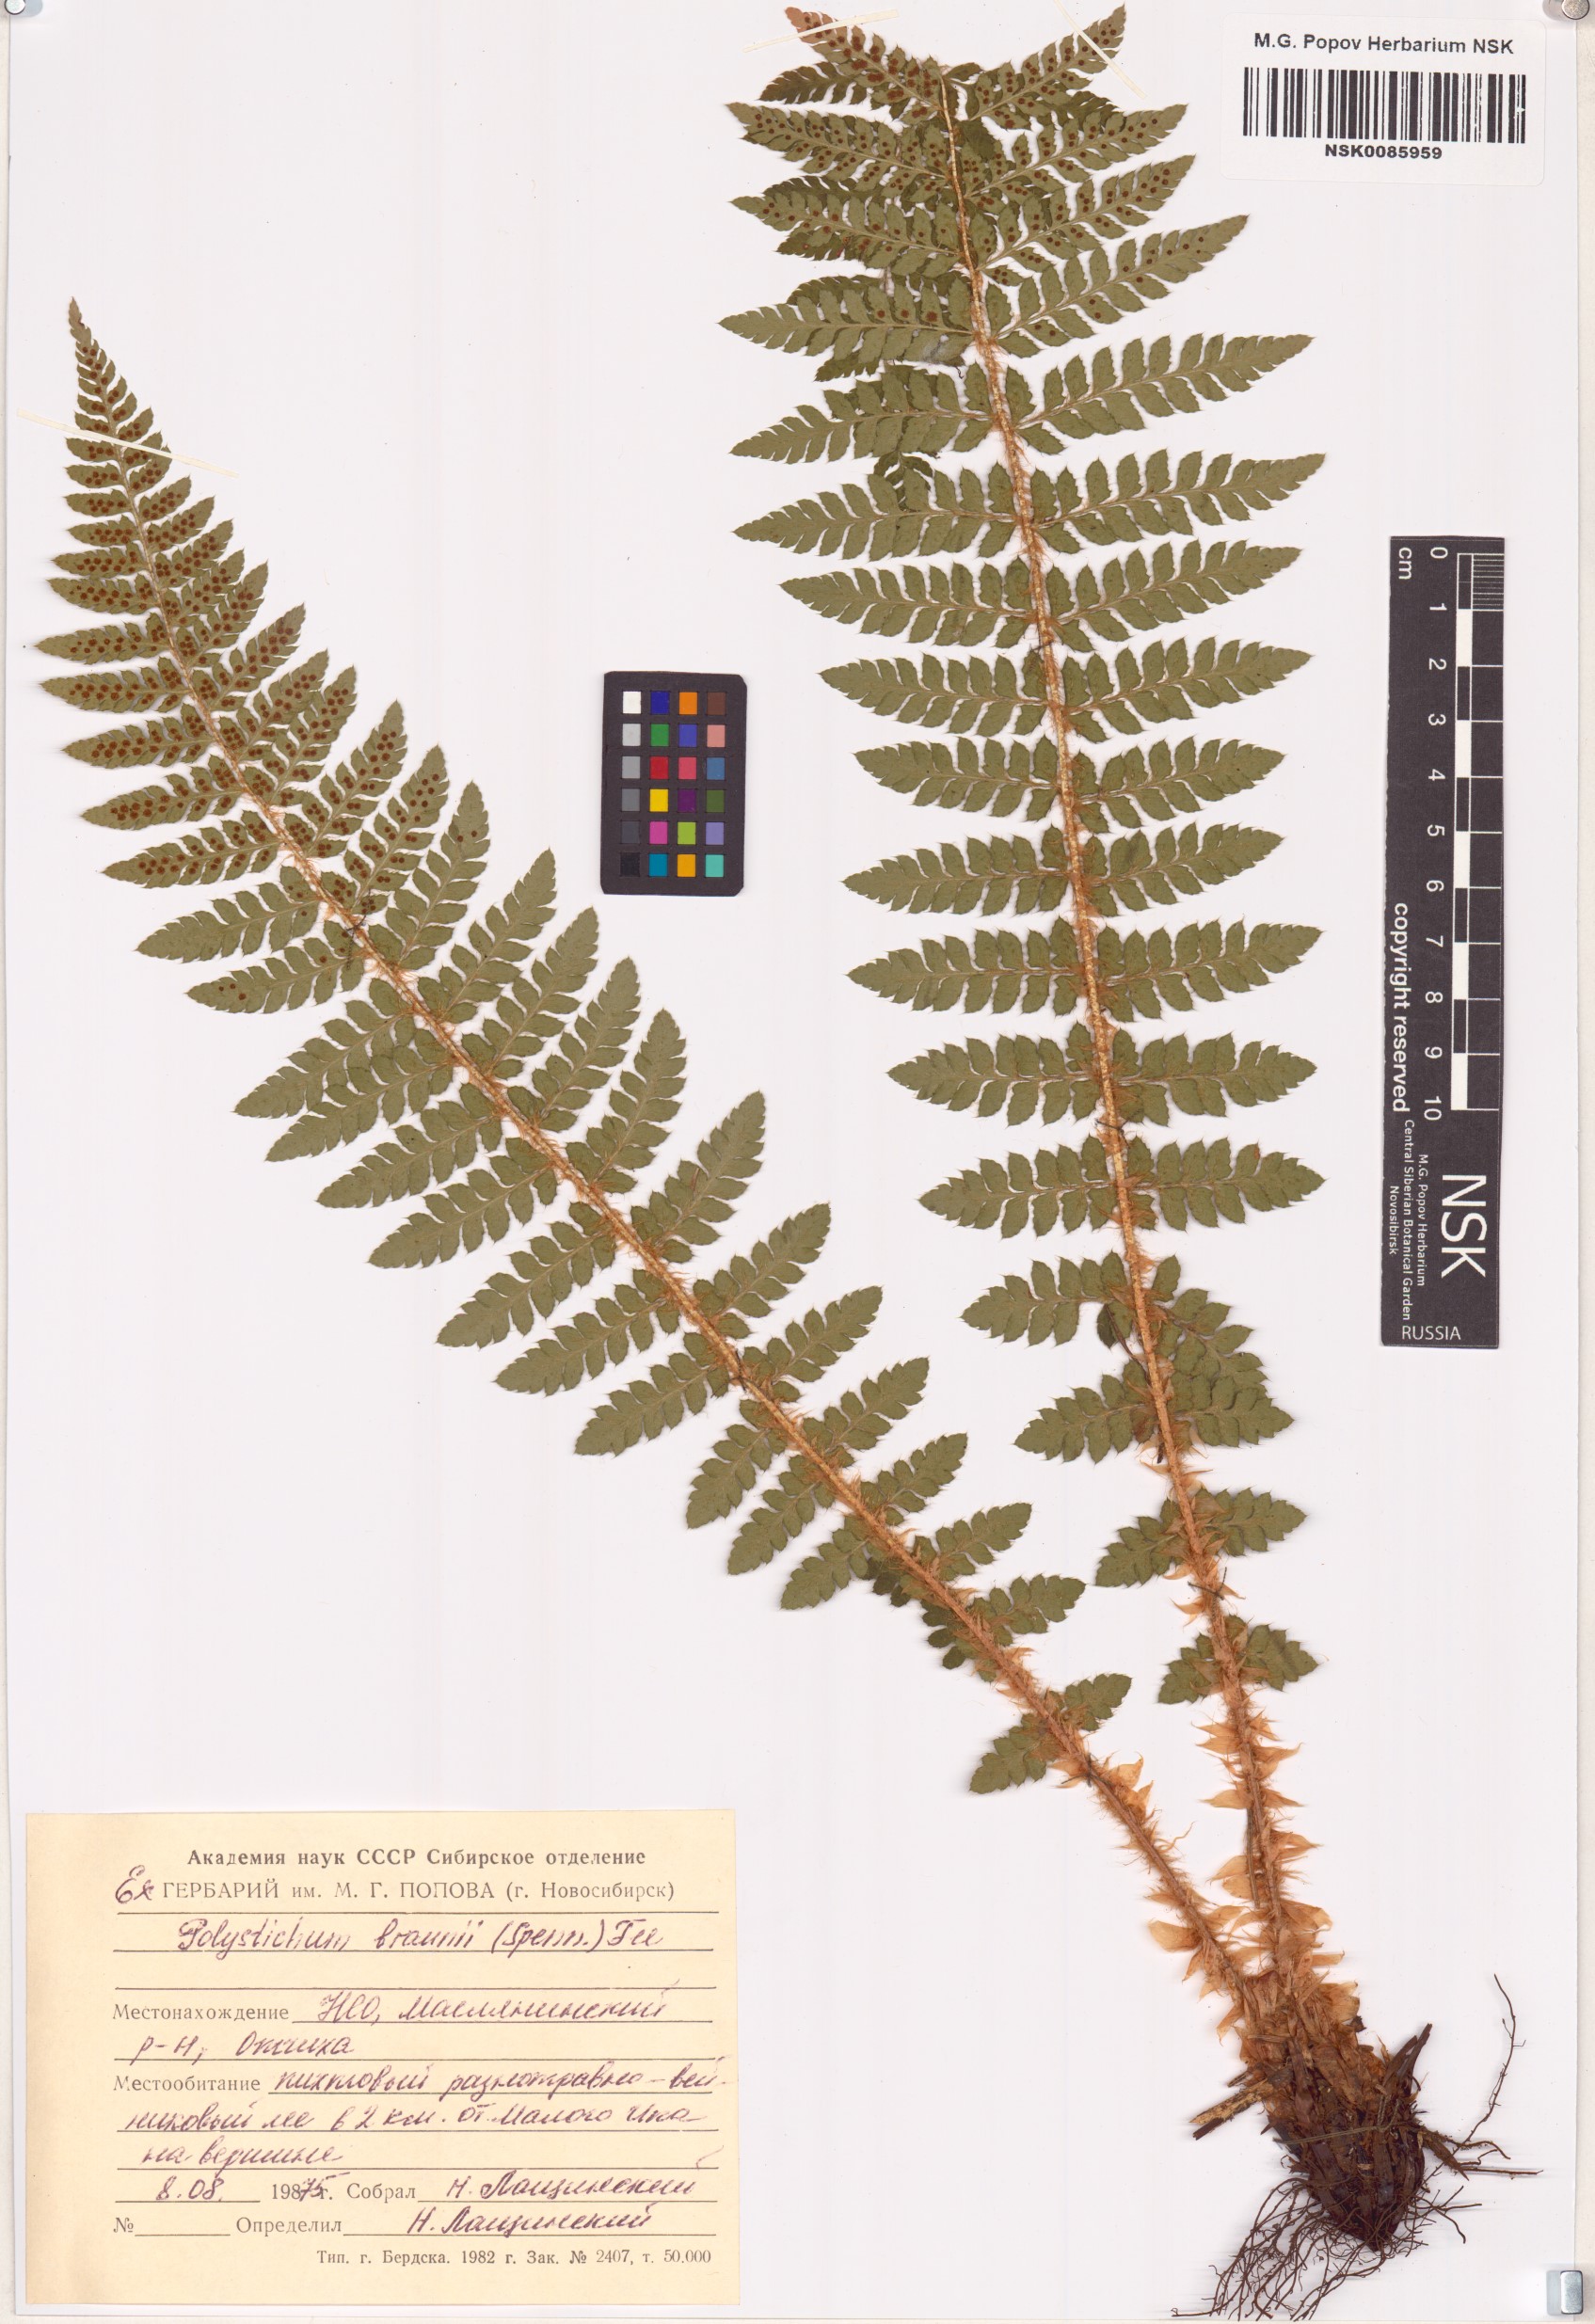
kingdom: Plantae
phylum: Tracheophyta
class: Polypodiopsida
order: Polypodiales
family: Dryopteridaceae
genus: Polystichum
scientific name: Polystichum braunii
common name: Braun's holly fern
